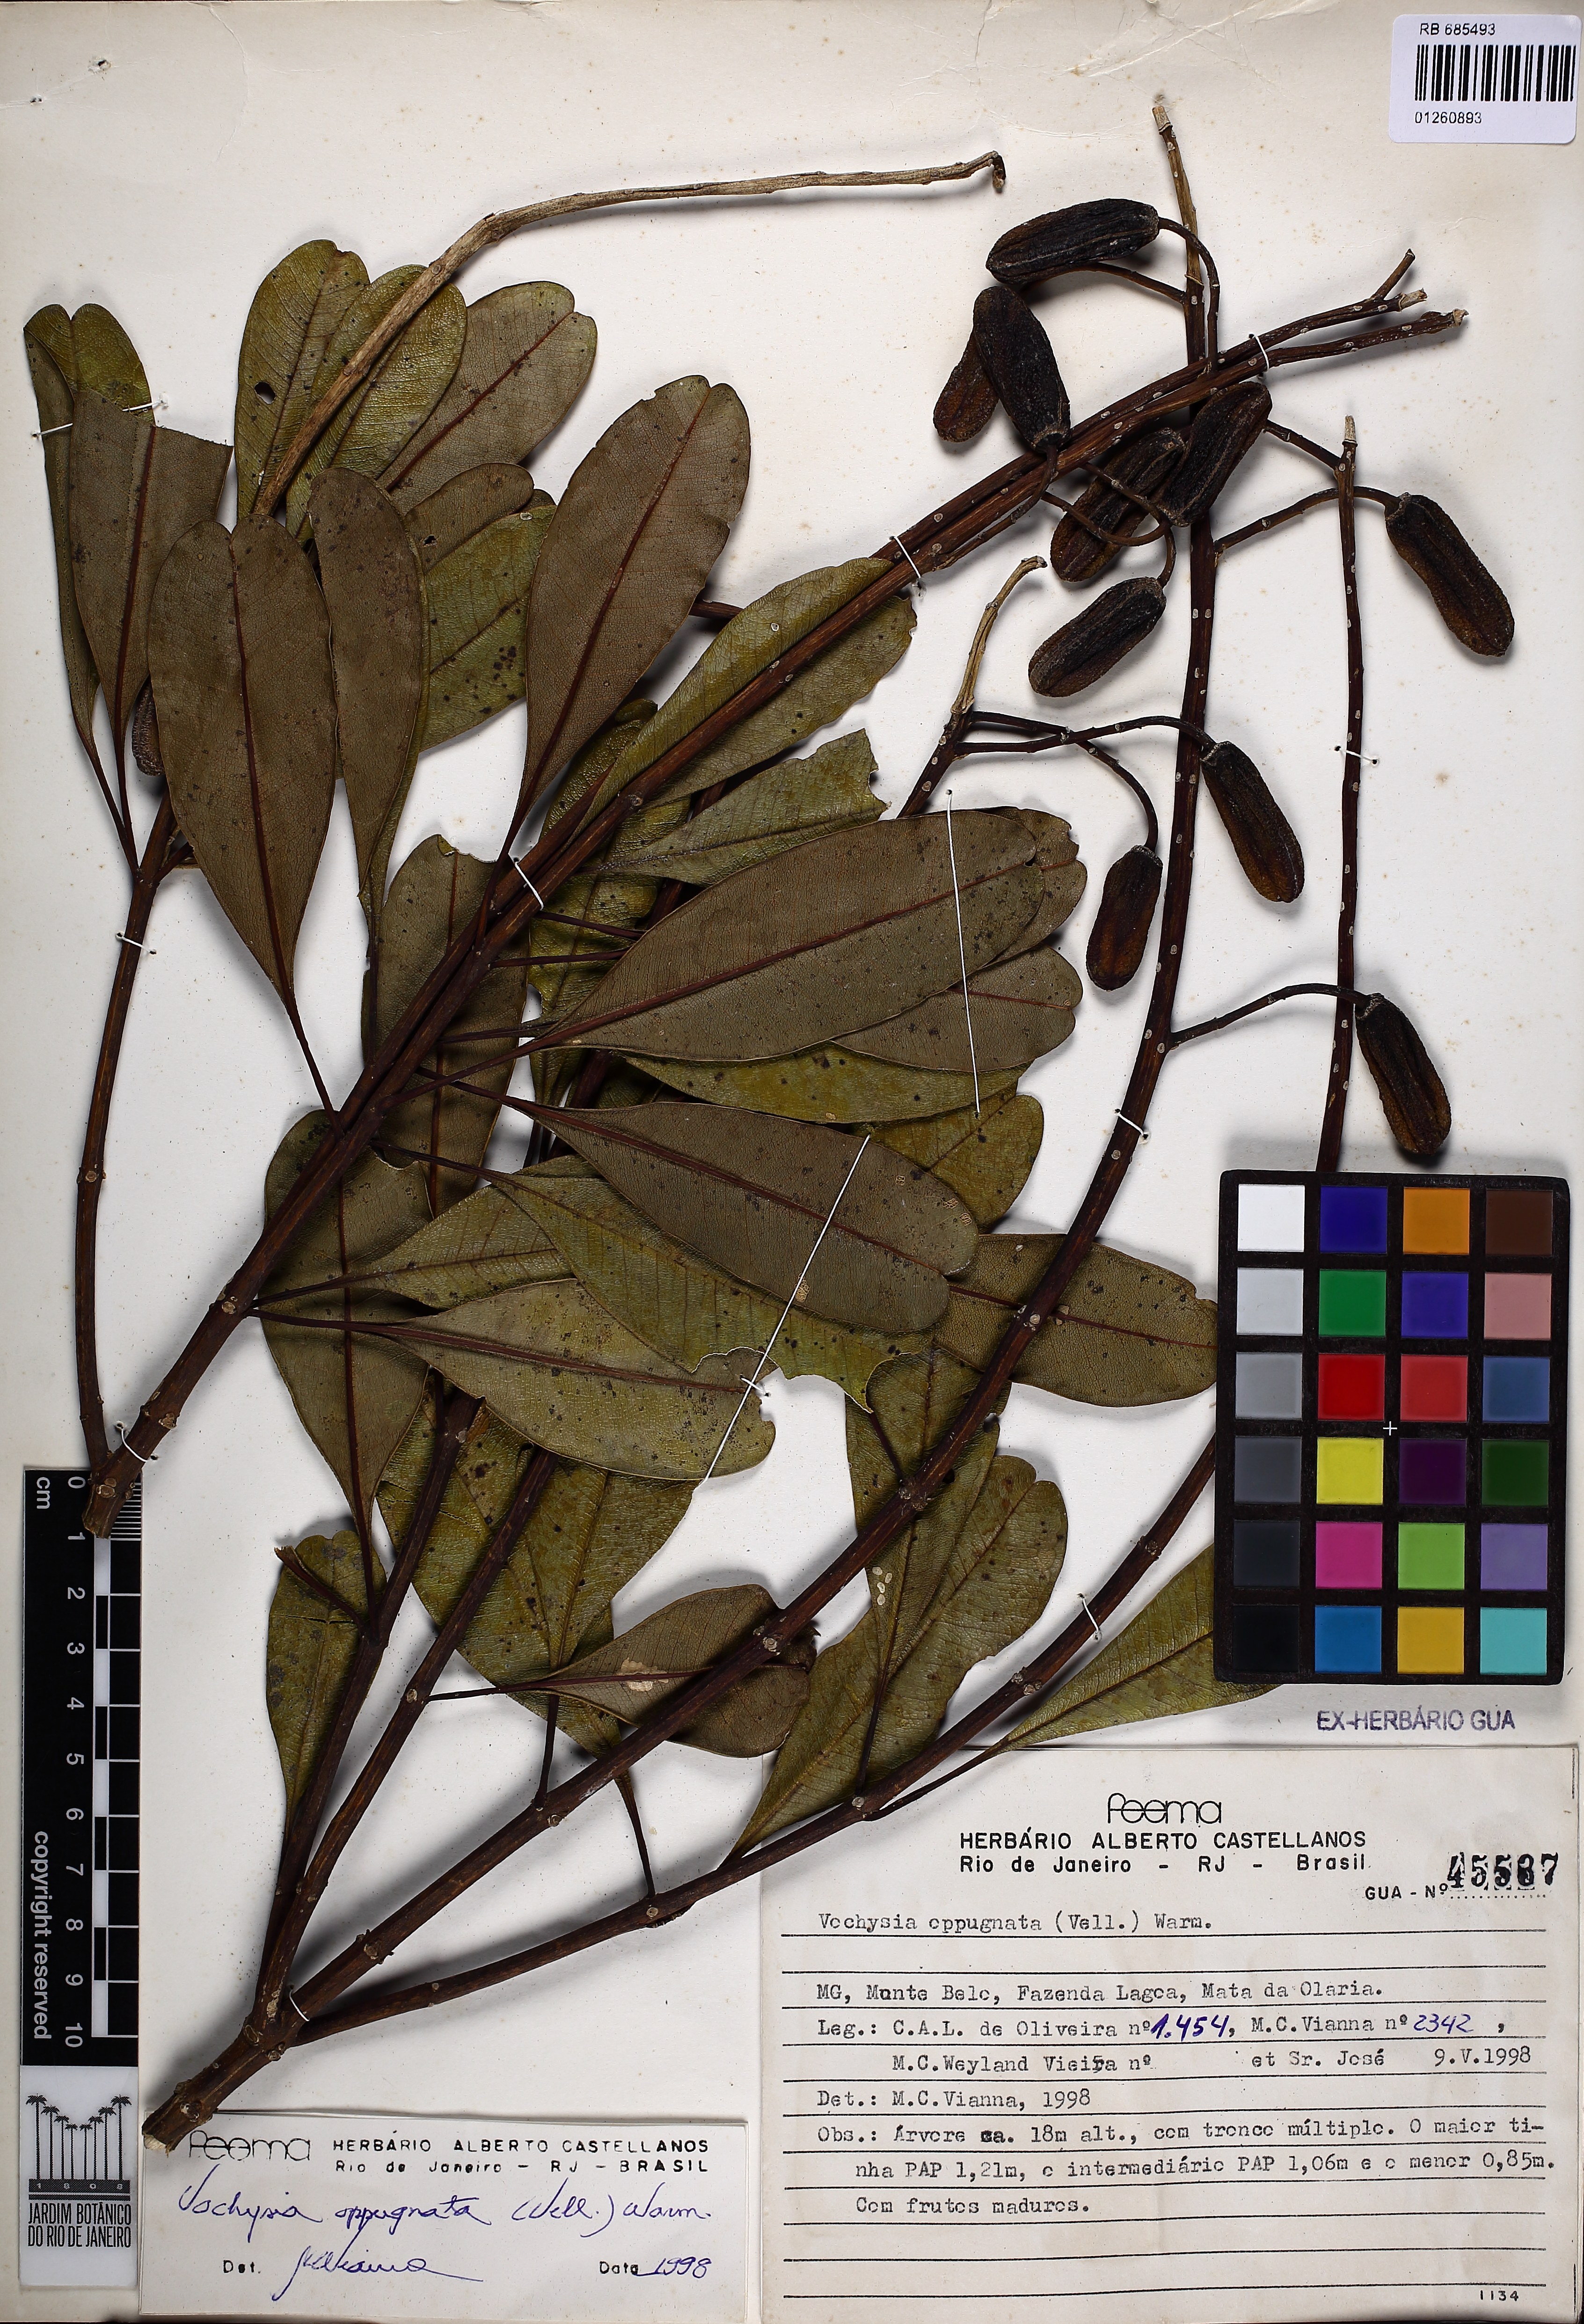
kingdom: Plantae
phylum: Tracheophyta
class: Magnoliopsida
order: Myrtales
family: Vochysiaceae
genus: Vochysia
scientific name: Vochysia oppugnata
